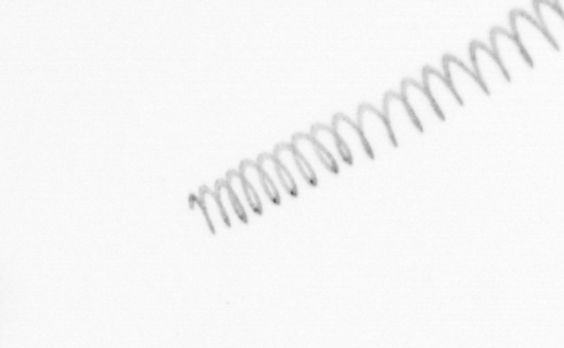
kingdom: Chromista
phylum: Ochrophyta
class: Bacillariophyceae
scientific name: Bacillariophyceae
